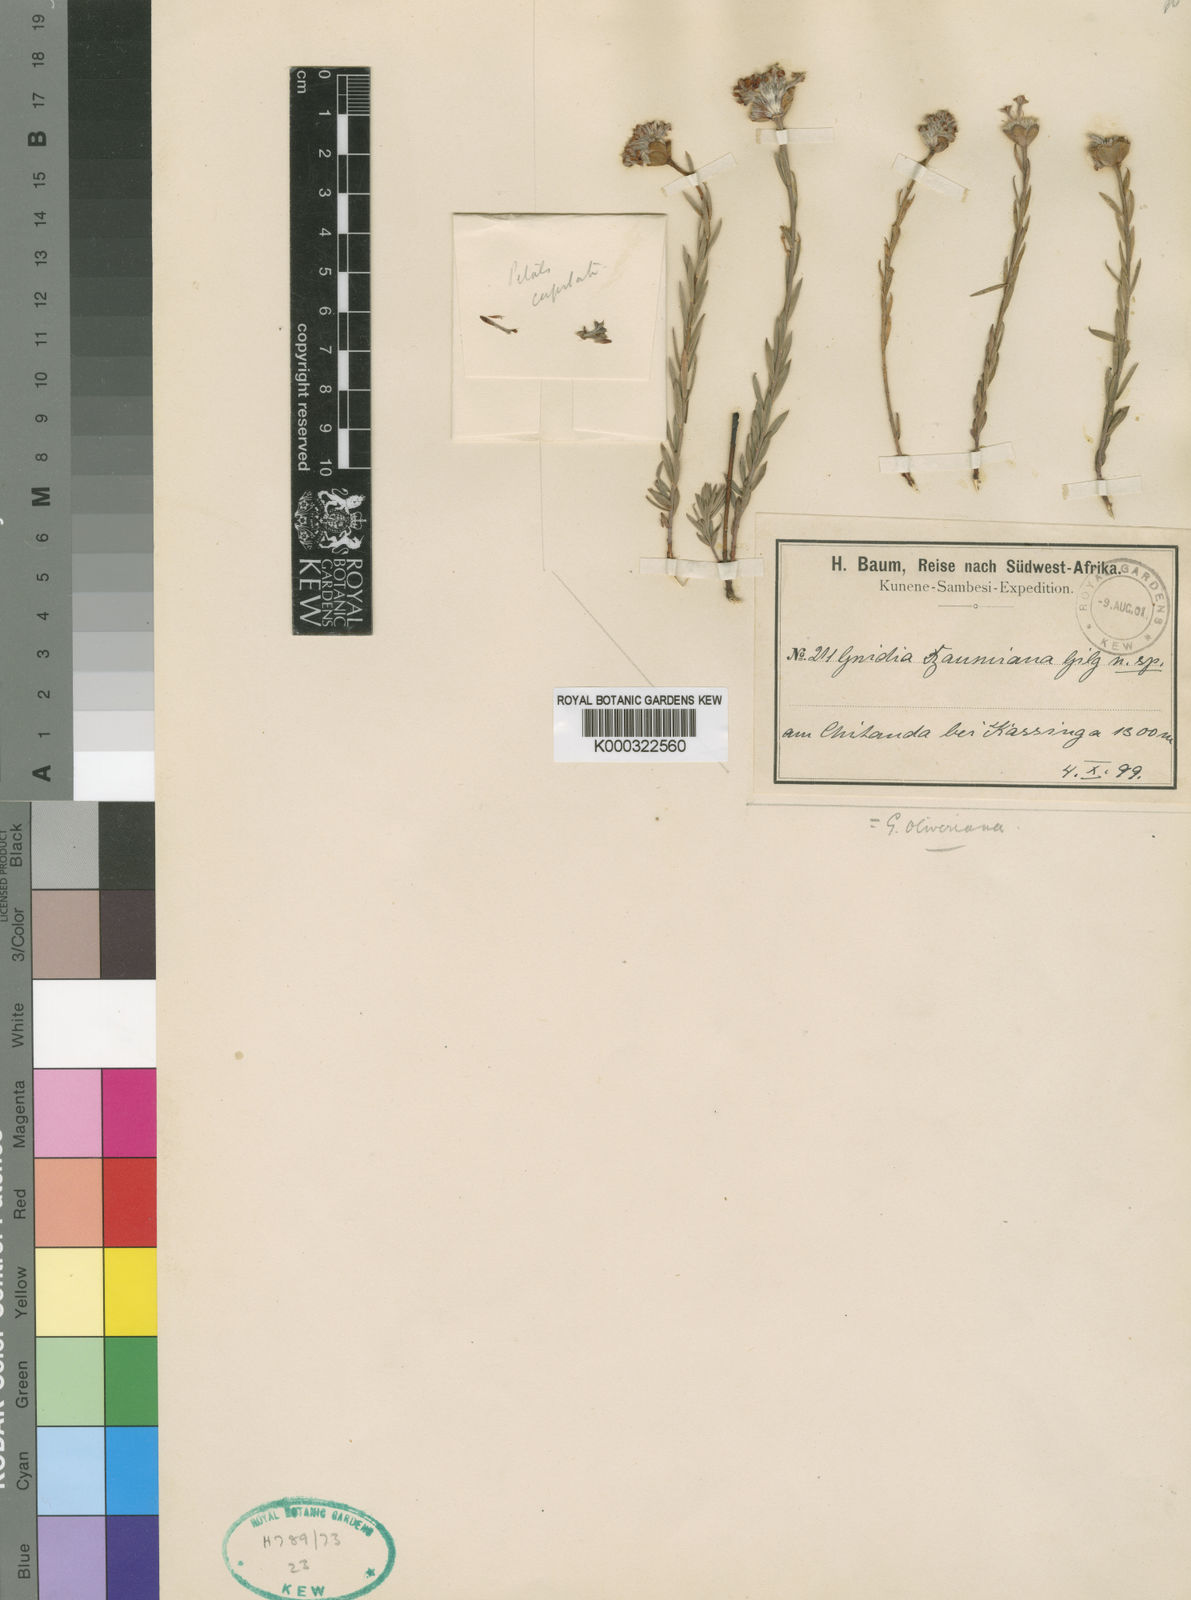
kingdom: Plantae
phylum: Tracheophyta
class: Magnoliopsida
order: Malvales
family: Thymelaeaceae
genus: Gnidia
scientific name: Gnidia oliveriana
